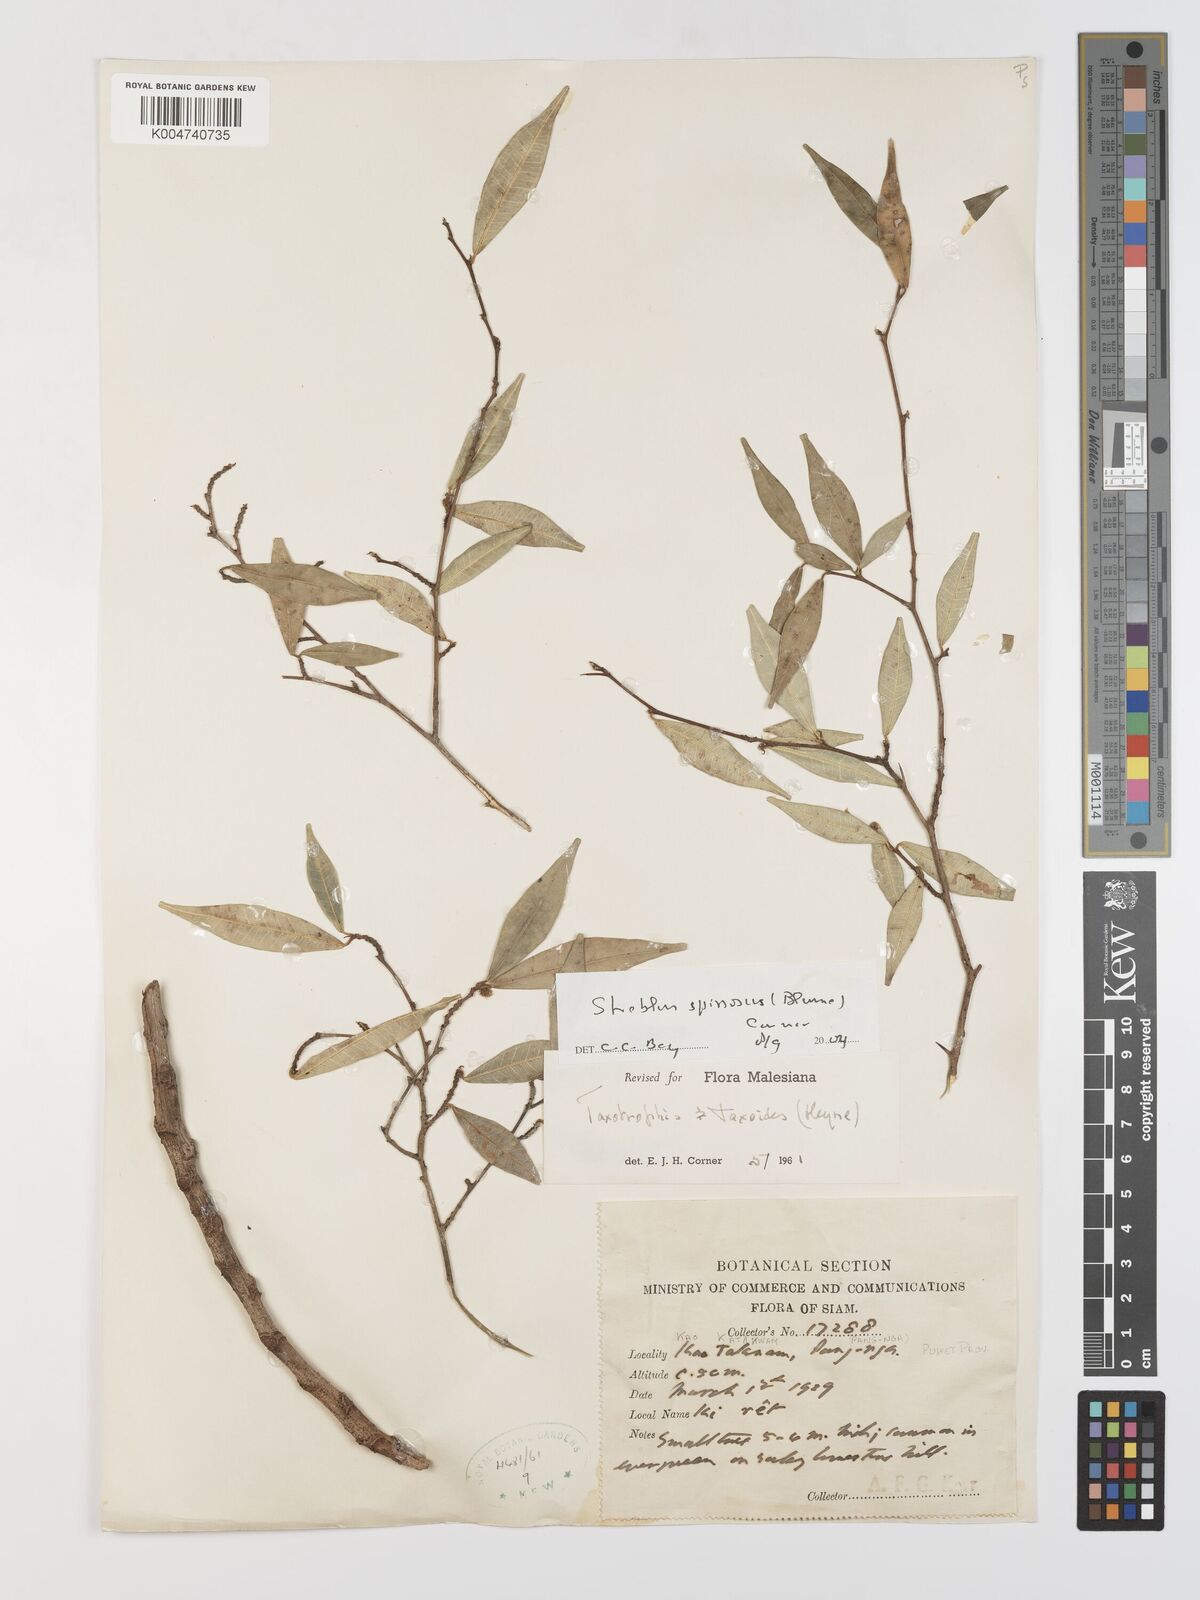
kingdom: Plantae
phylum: Tracheophyta
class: Magnoliopsida
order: Rosales
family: Moraceae
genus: Taxotrophis
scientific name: Taxotrophis spinosa
